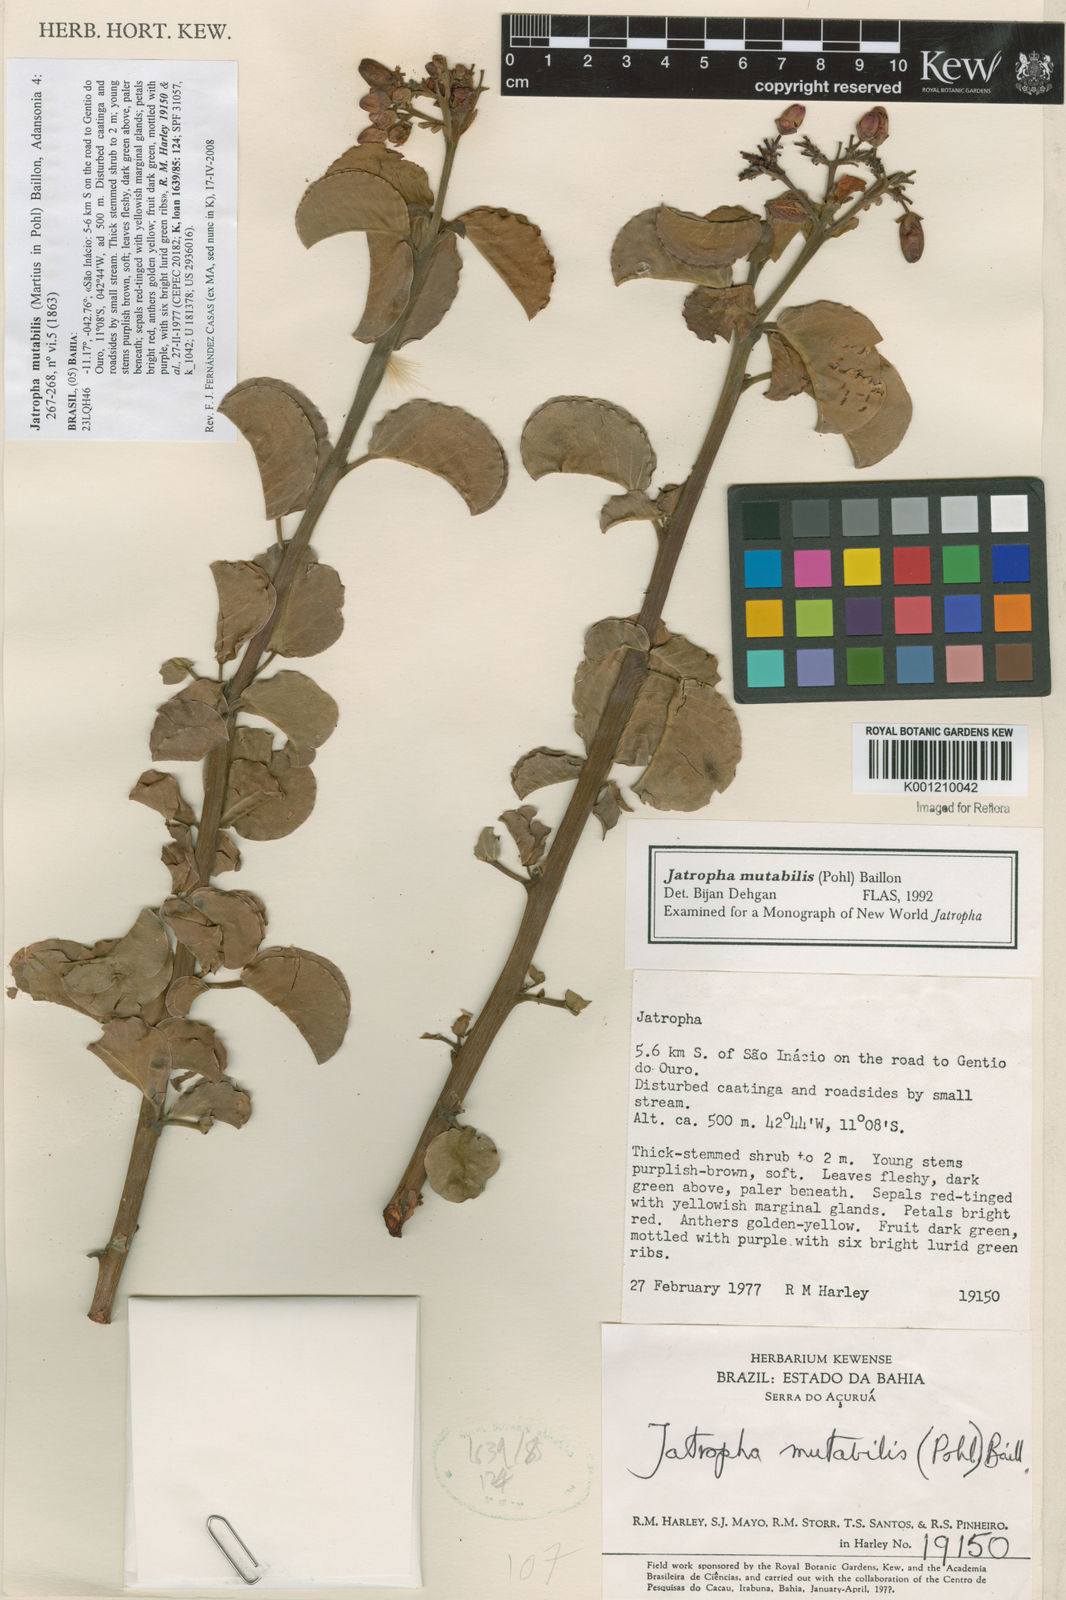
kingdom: Plantae
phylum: Tracheophyta
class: Magnoliopsida
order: Malpighiales
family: Euphorbiaceae
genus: Jatropha
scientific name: Jatropha mutabilis
